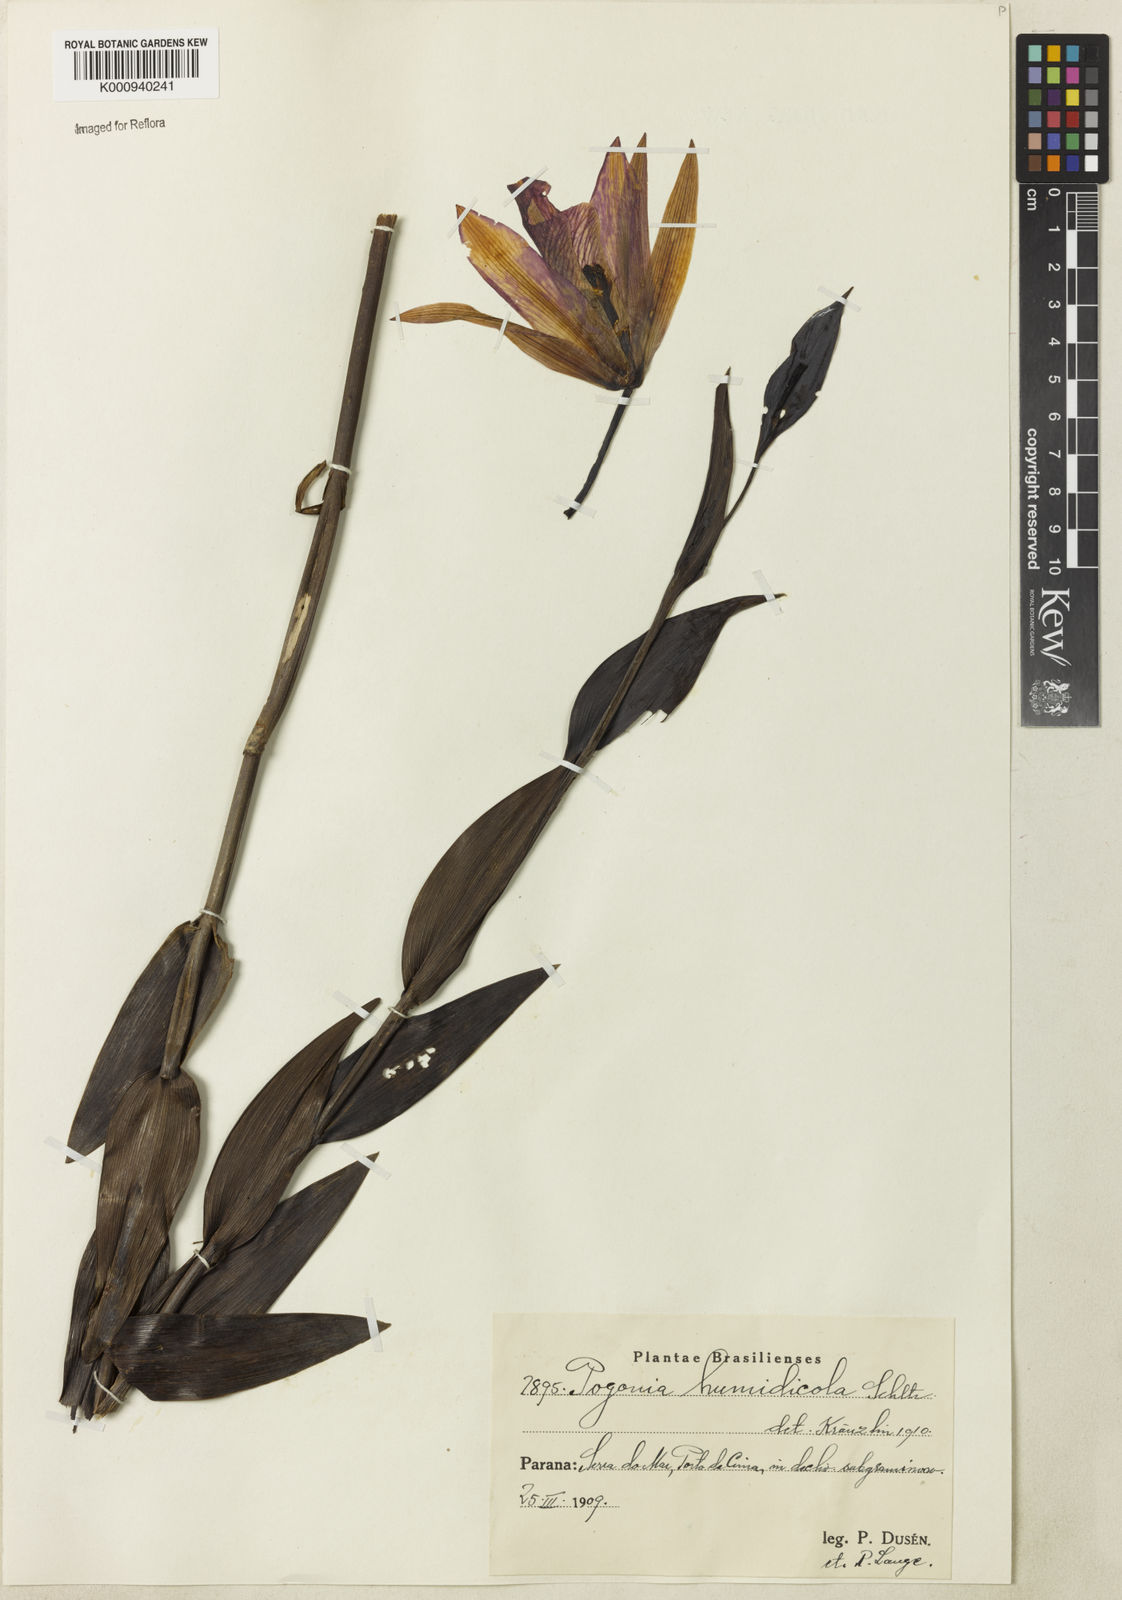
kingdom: Plantae
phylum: Tracheophyta
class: Liliopsida
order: Asparagales
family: Orchidaceae
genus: Cleistes
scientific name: Cleistes humidicola
